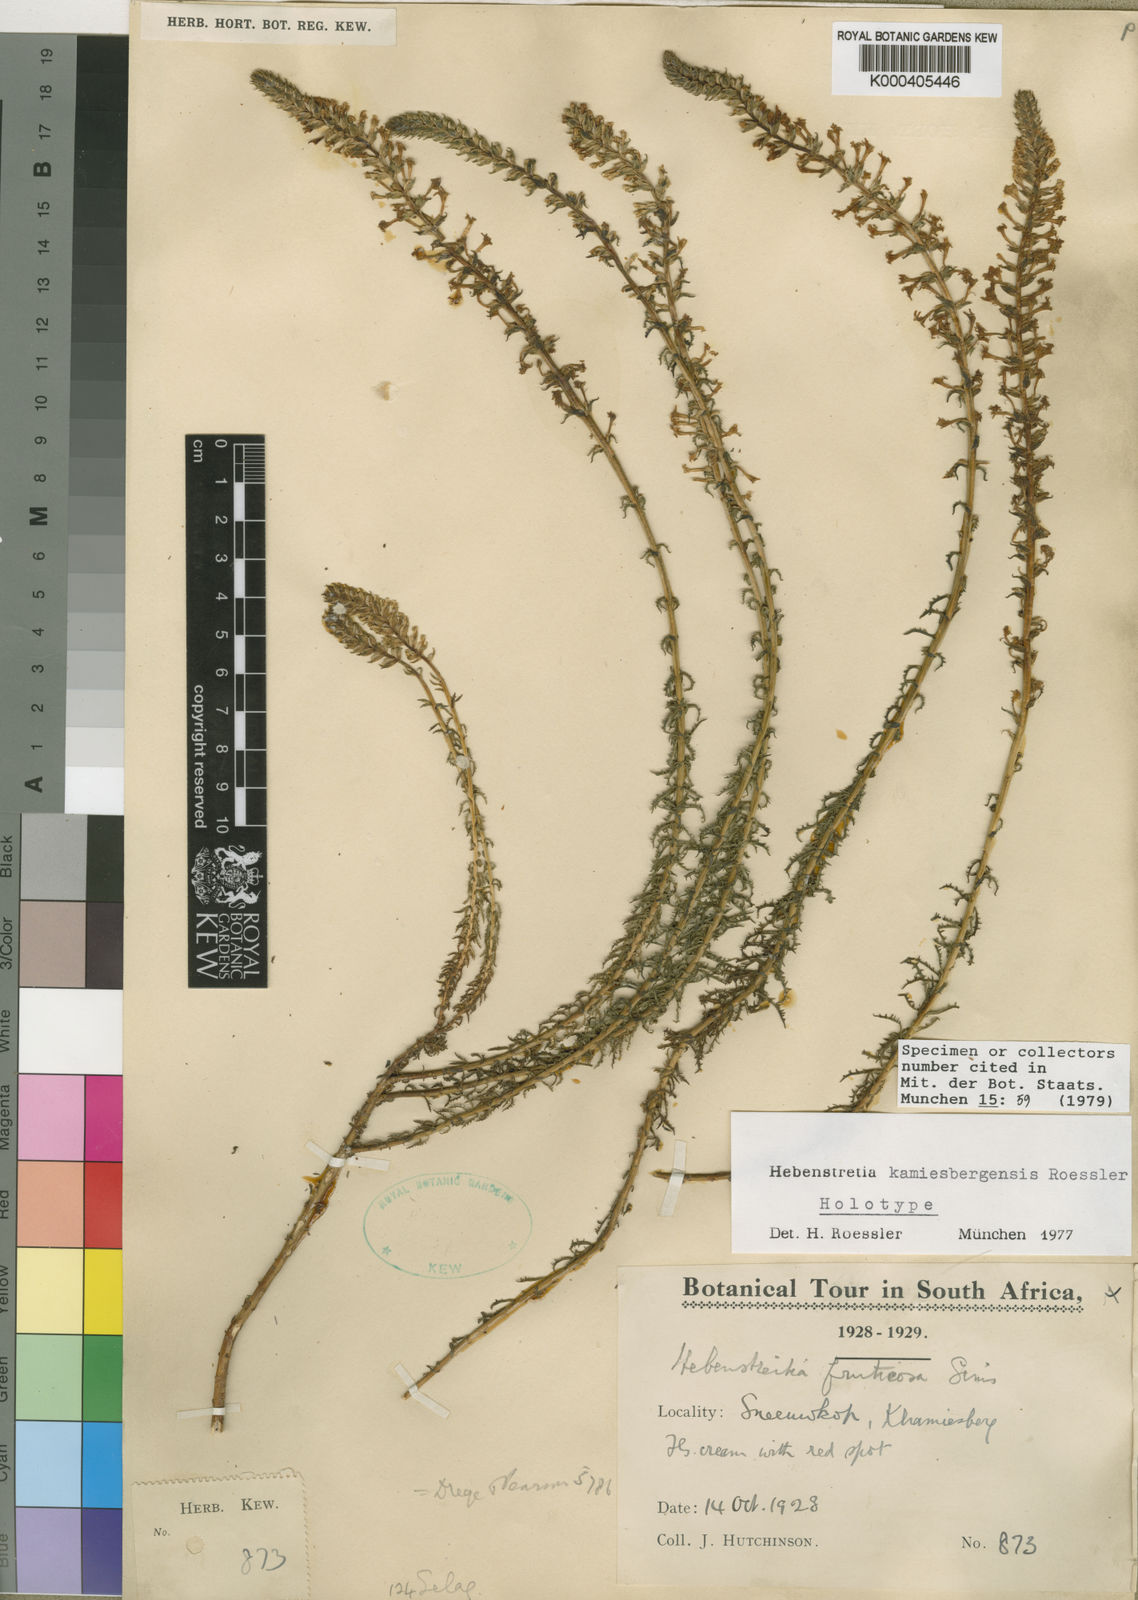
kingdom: Plantae
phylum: Tracheophyta
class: Magnoliopsida
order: Lamiales
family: Scrophulariaceae
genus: Hebenstretia
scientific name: Hebenstretia kamiesbergensis
